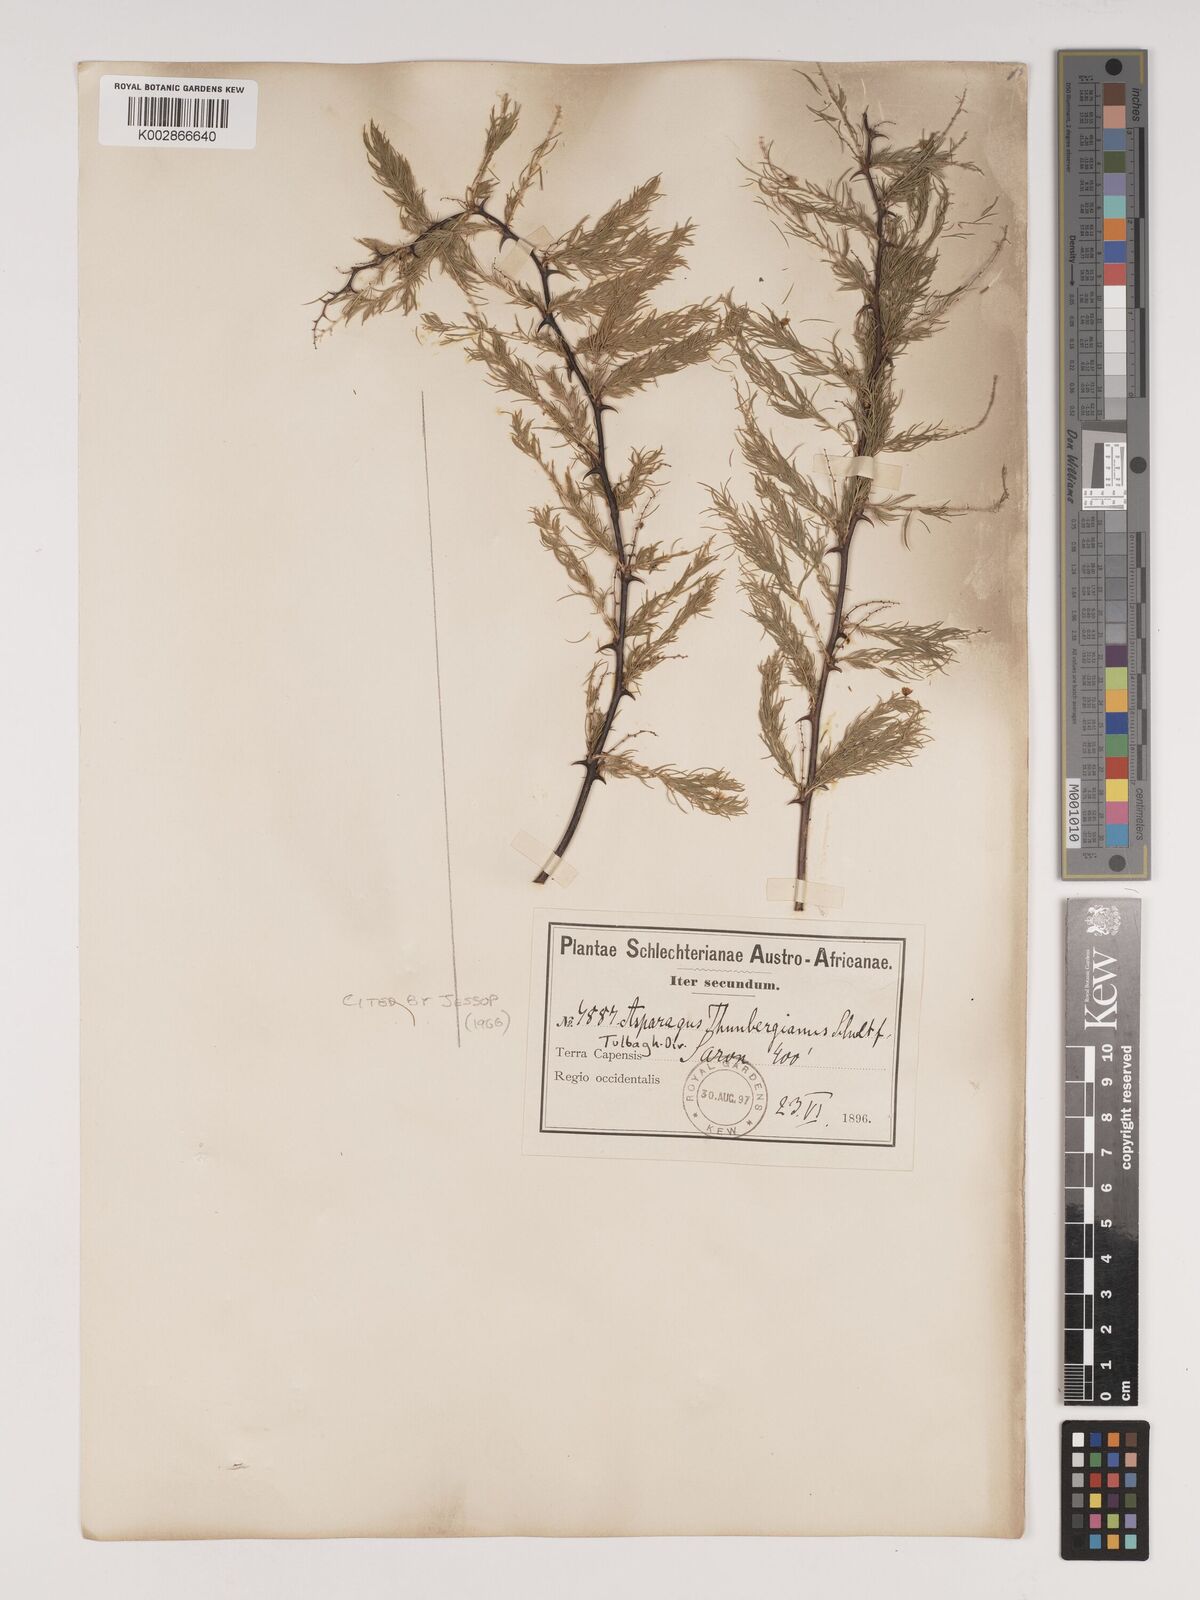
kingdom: Plantae
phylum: Tracheophyta
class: Liliopsida
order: Asparagales
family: Asparagaceae
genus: Asparagus
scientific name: Asparagus rubicundus
